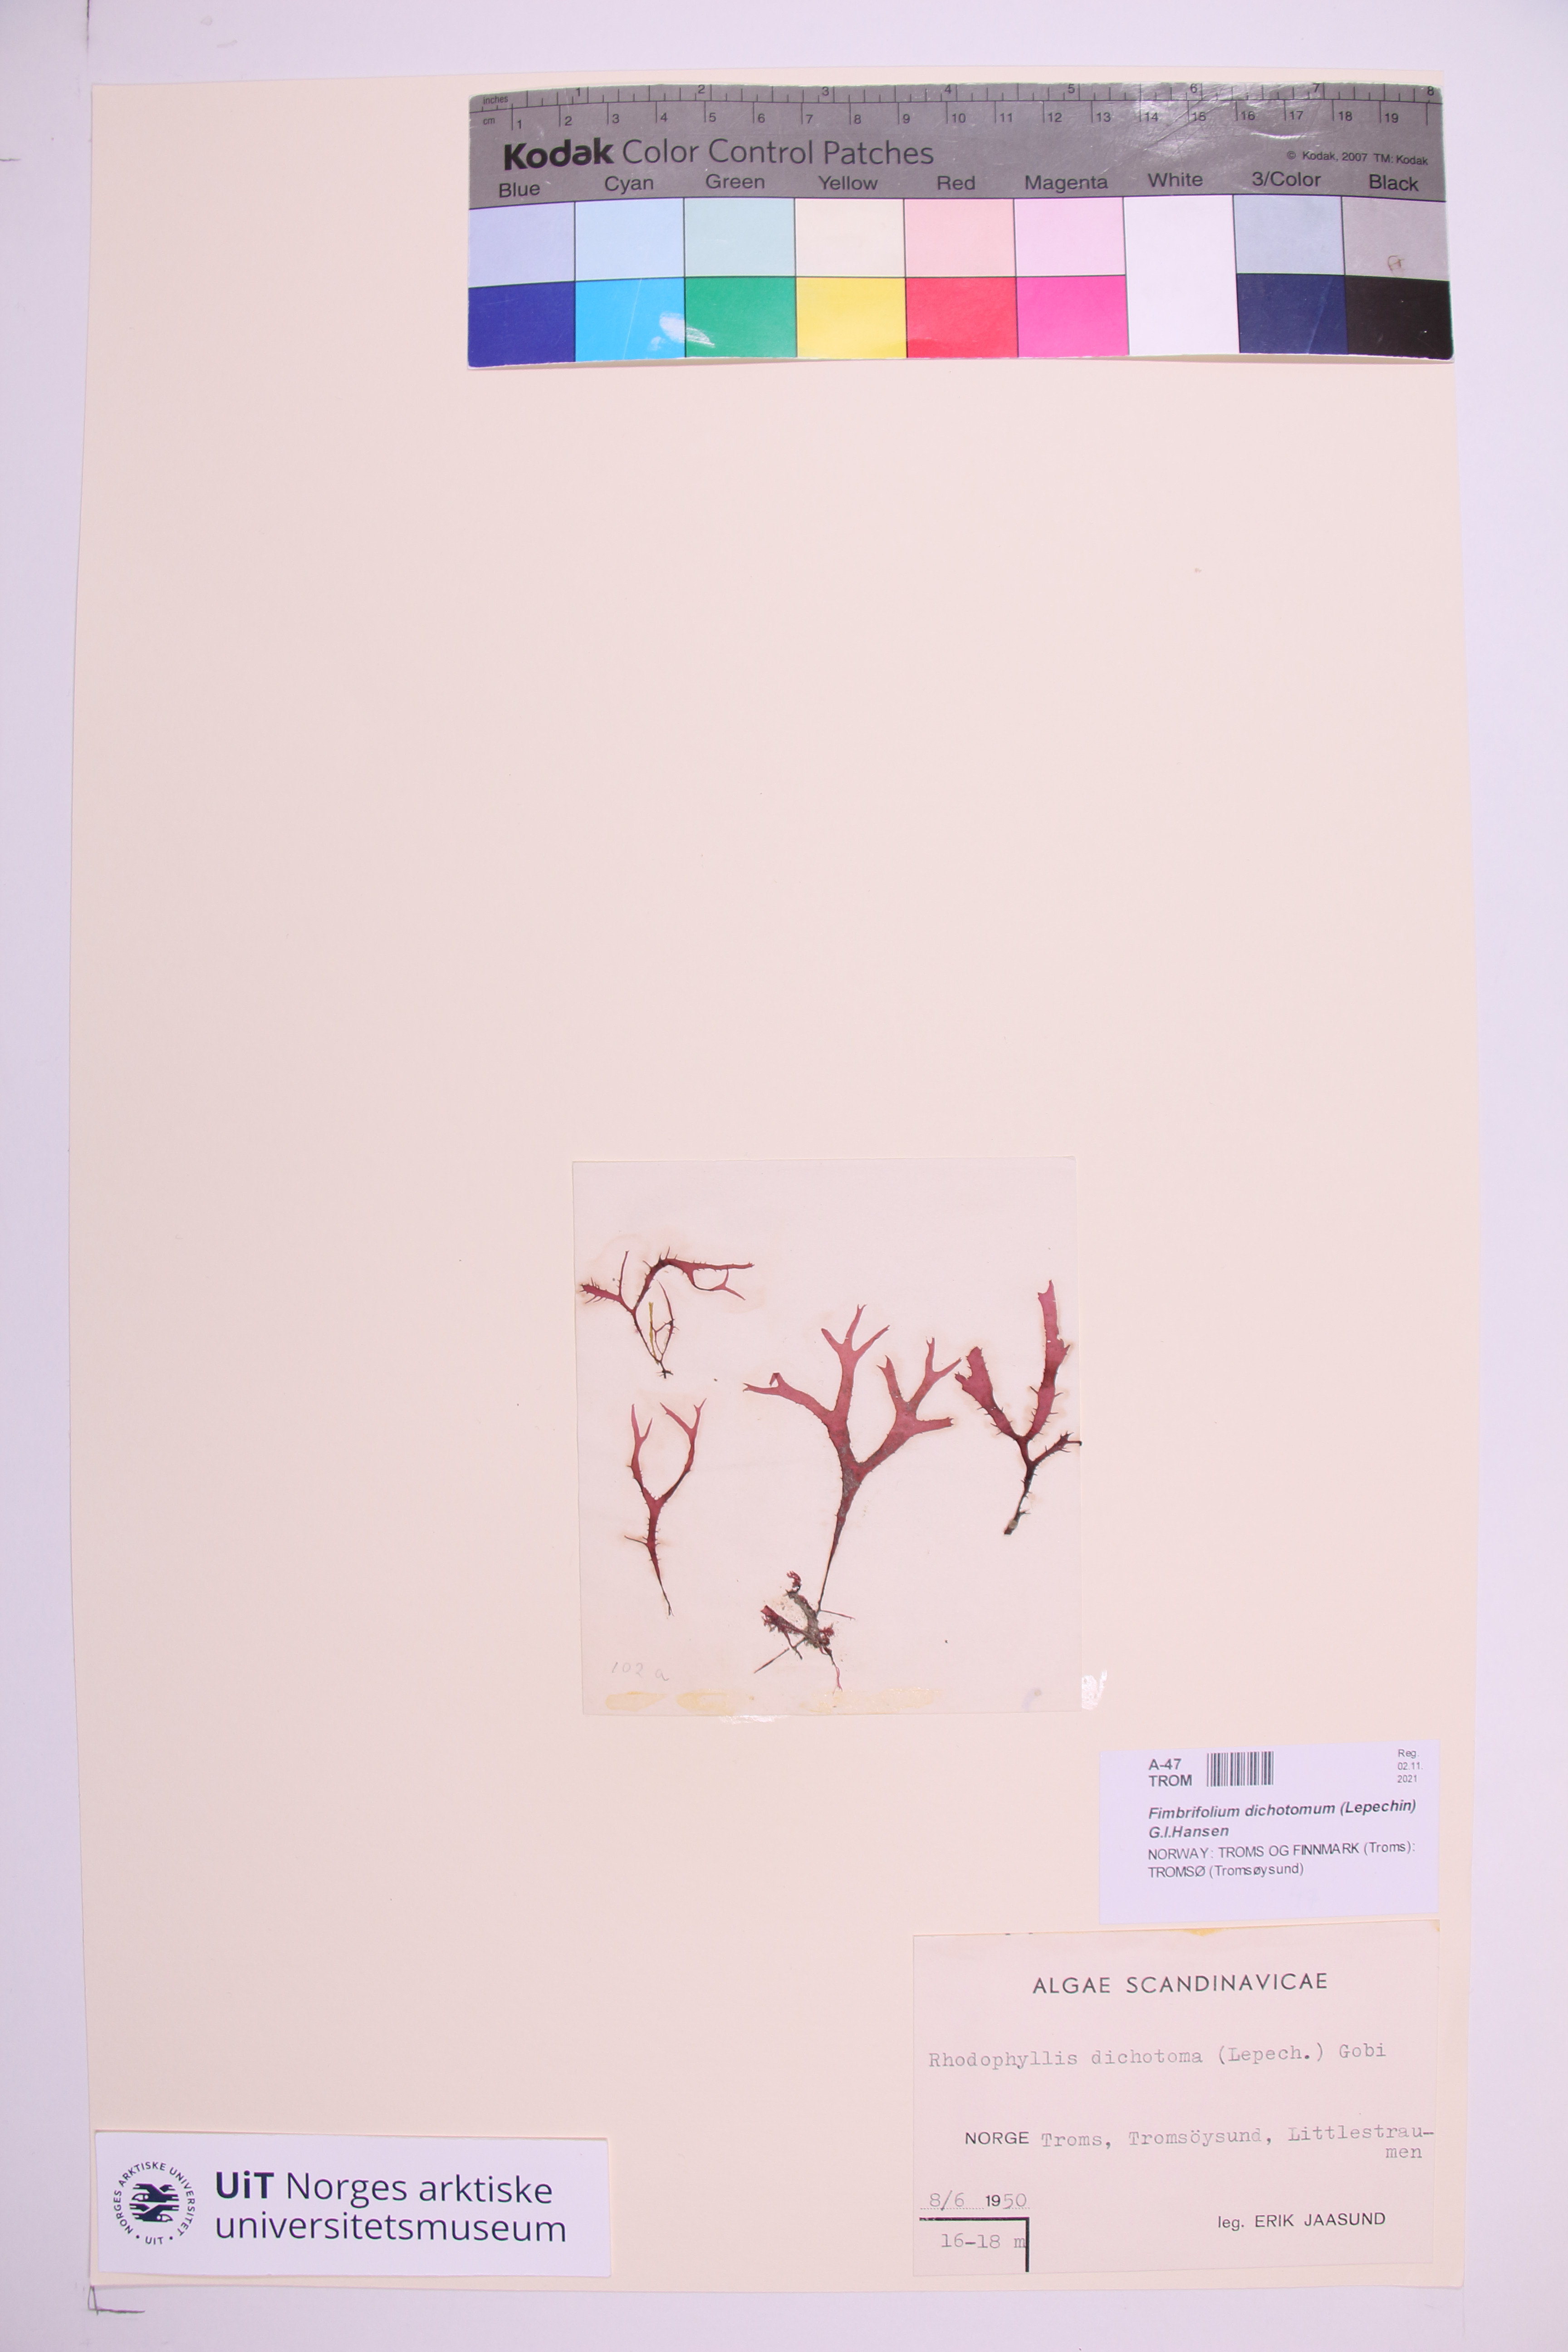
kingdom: Plantae
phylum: Rhodophyta
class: Florideophyceae
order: Gigartinales
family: Cystocloniaceae
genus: Fimbrifolium
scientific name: Fimbrifolium dichotomum
